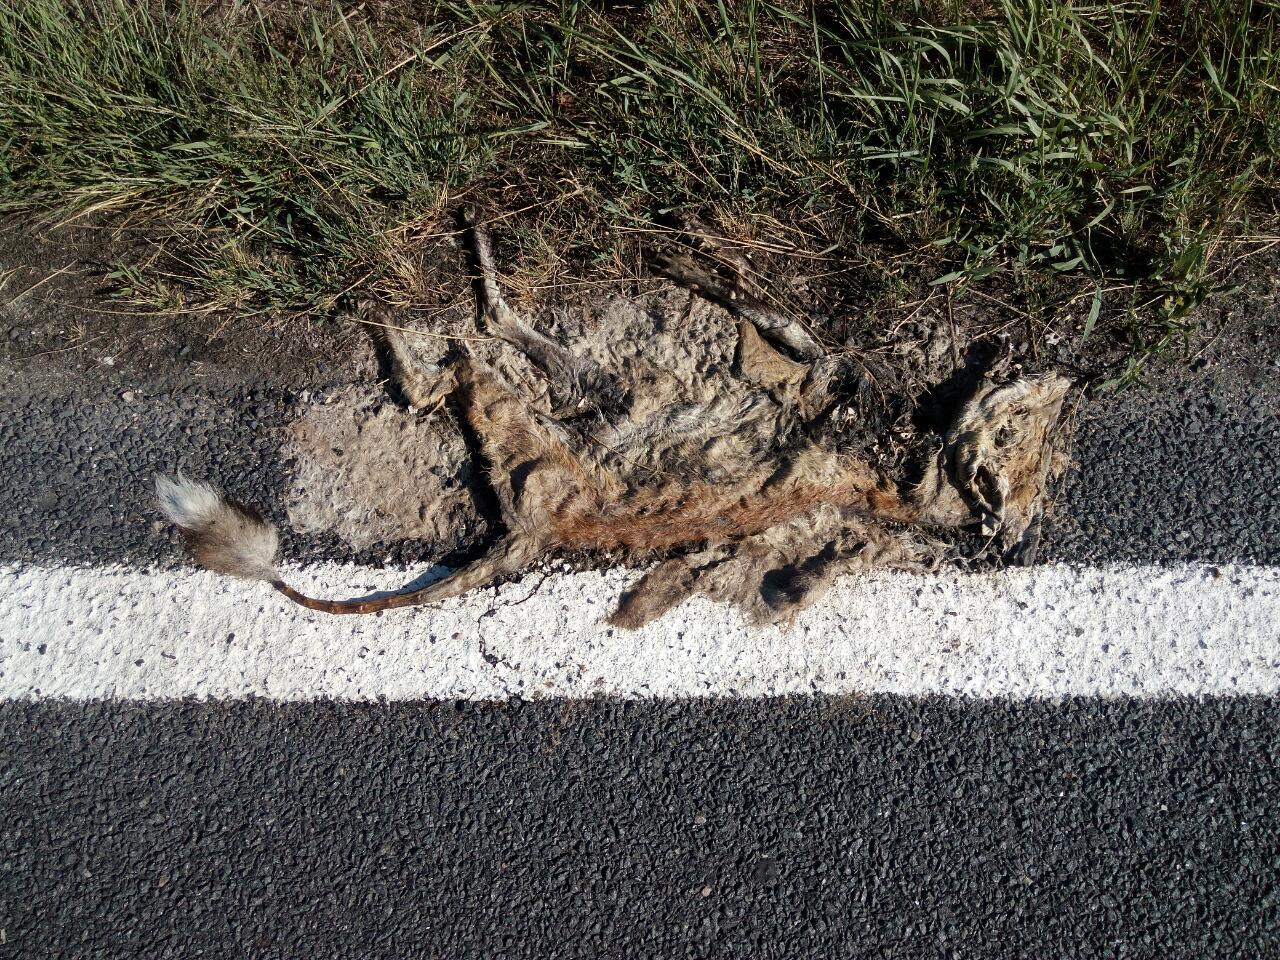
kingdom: Animalia
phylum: Chordata
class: Mammalia
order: Carnivora
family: Canidae
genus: Vulpes
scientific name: Vulpes vulpes
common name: Red fox
